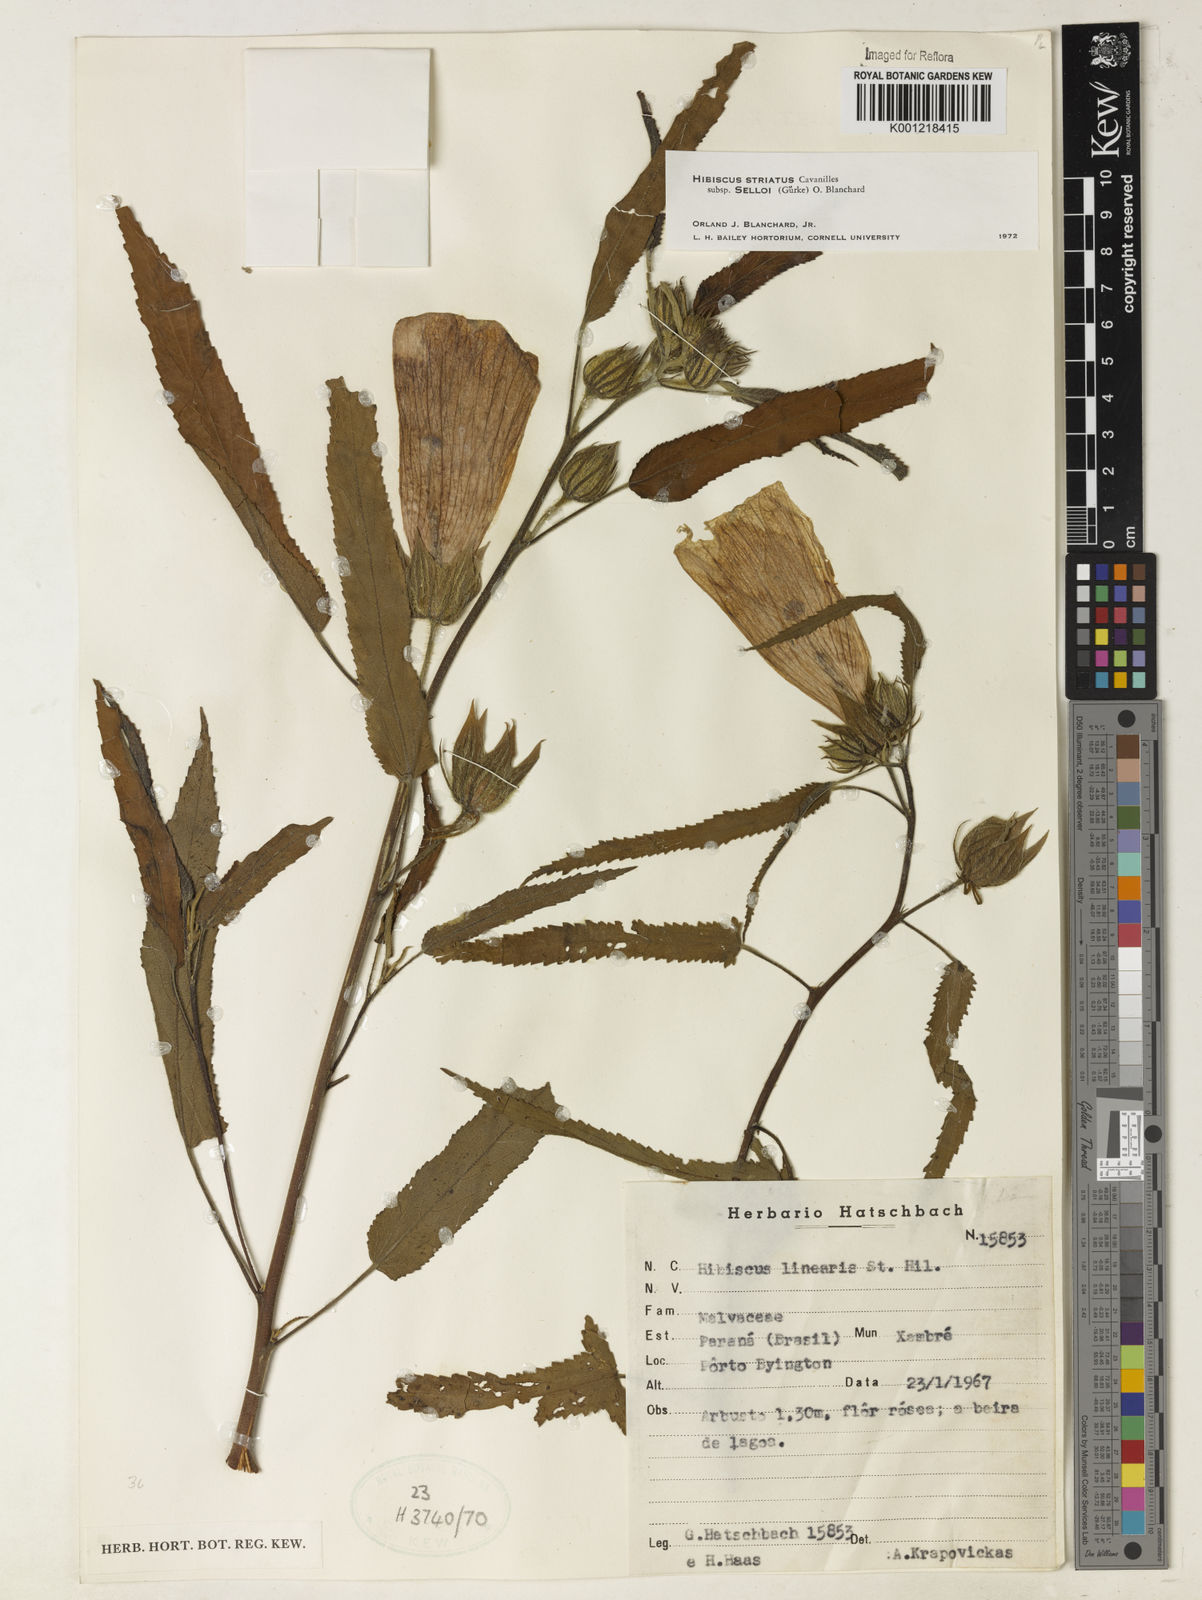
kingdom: Plantae
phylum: Tracheophyta
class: Magnoliopsida
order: Malvales
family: Malvaceae
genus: Hibiscus
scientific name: Hibiscus striatus
